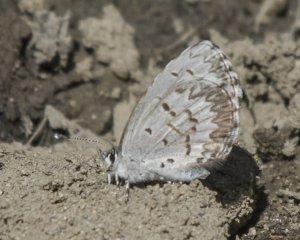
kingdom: Animalia
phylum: Arthropoda
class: Insecta
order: Lepidoptera
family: Lycaenidae
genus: Celastrina
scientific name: Celastrina lucia
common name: Northern Spring Azure
